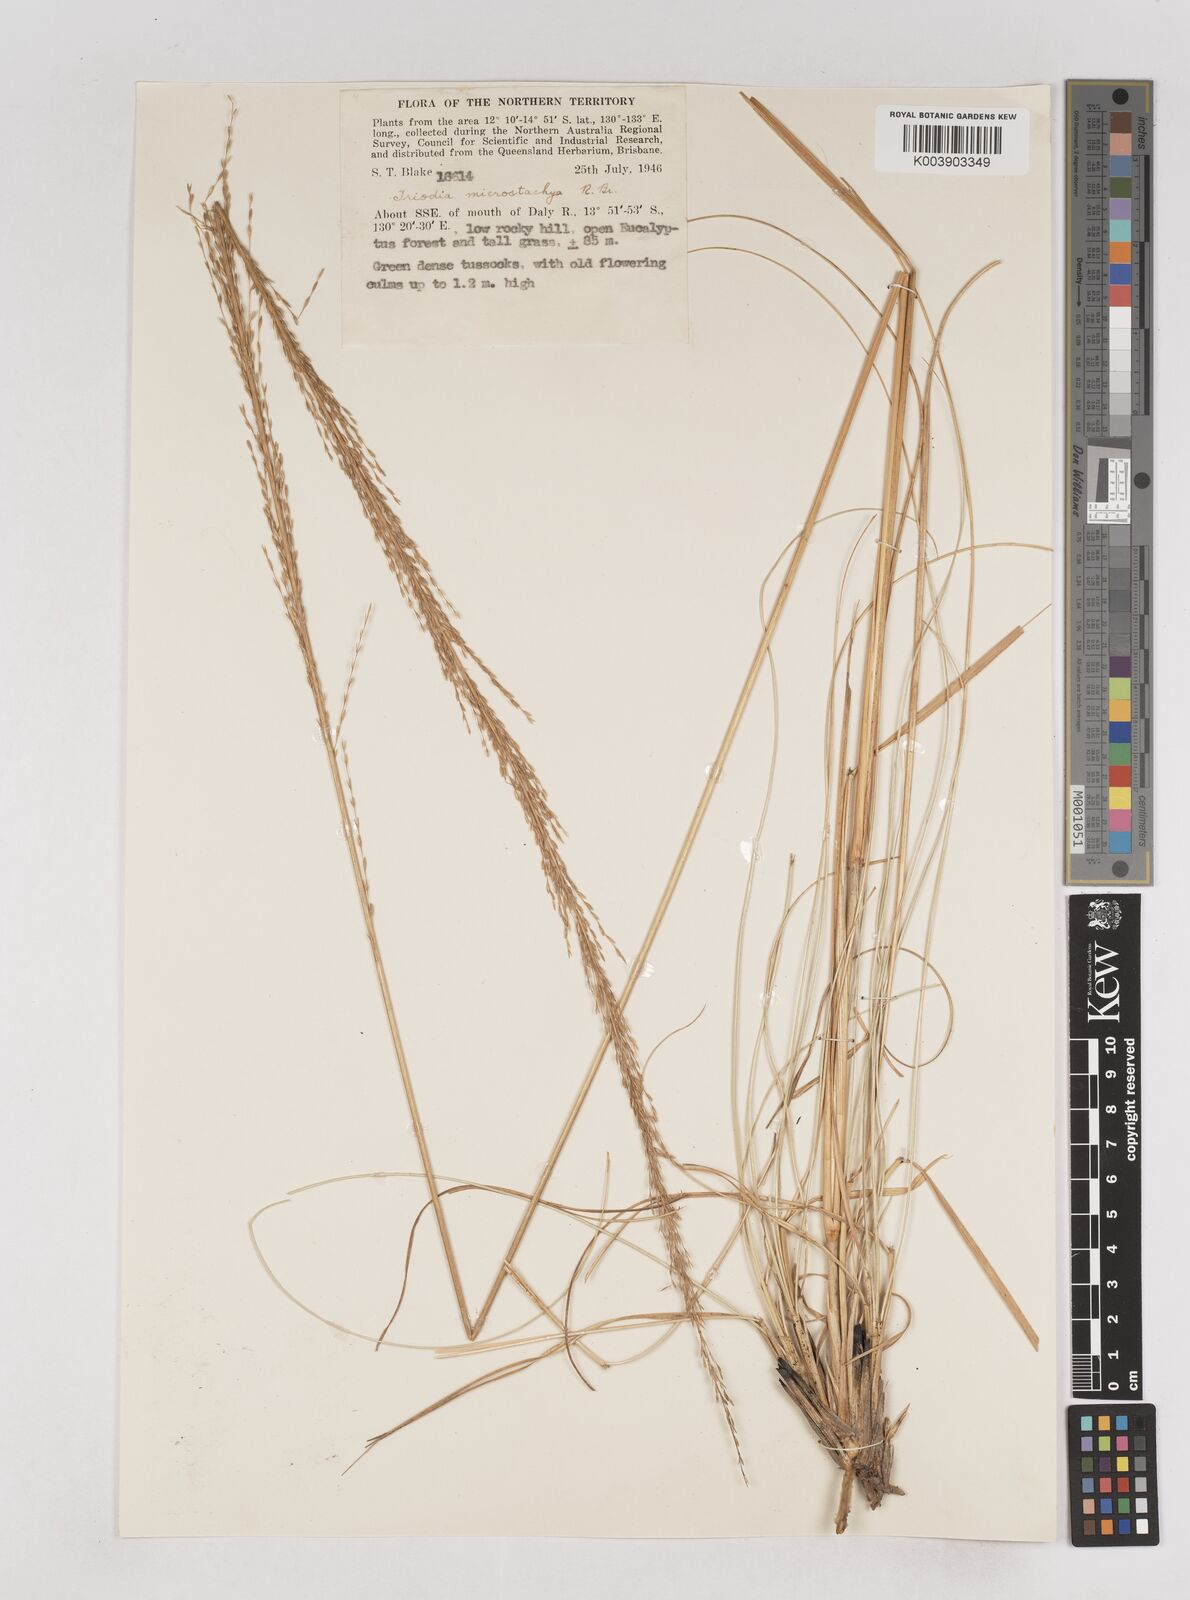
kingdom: Plantae
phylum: Tracheophyta
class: Liliopsida
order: Poales
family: Poaceae
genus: Triodia
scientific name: Triodia microstachya
